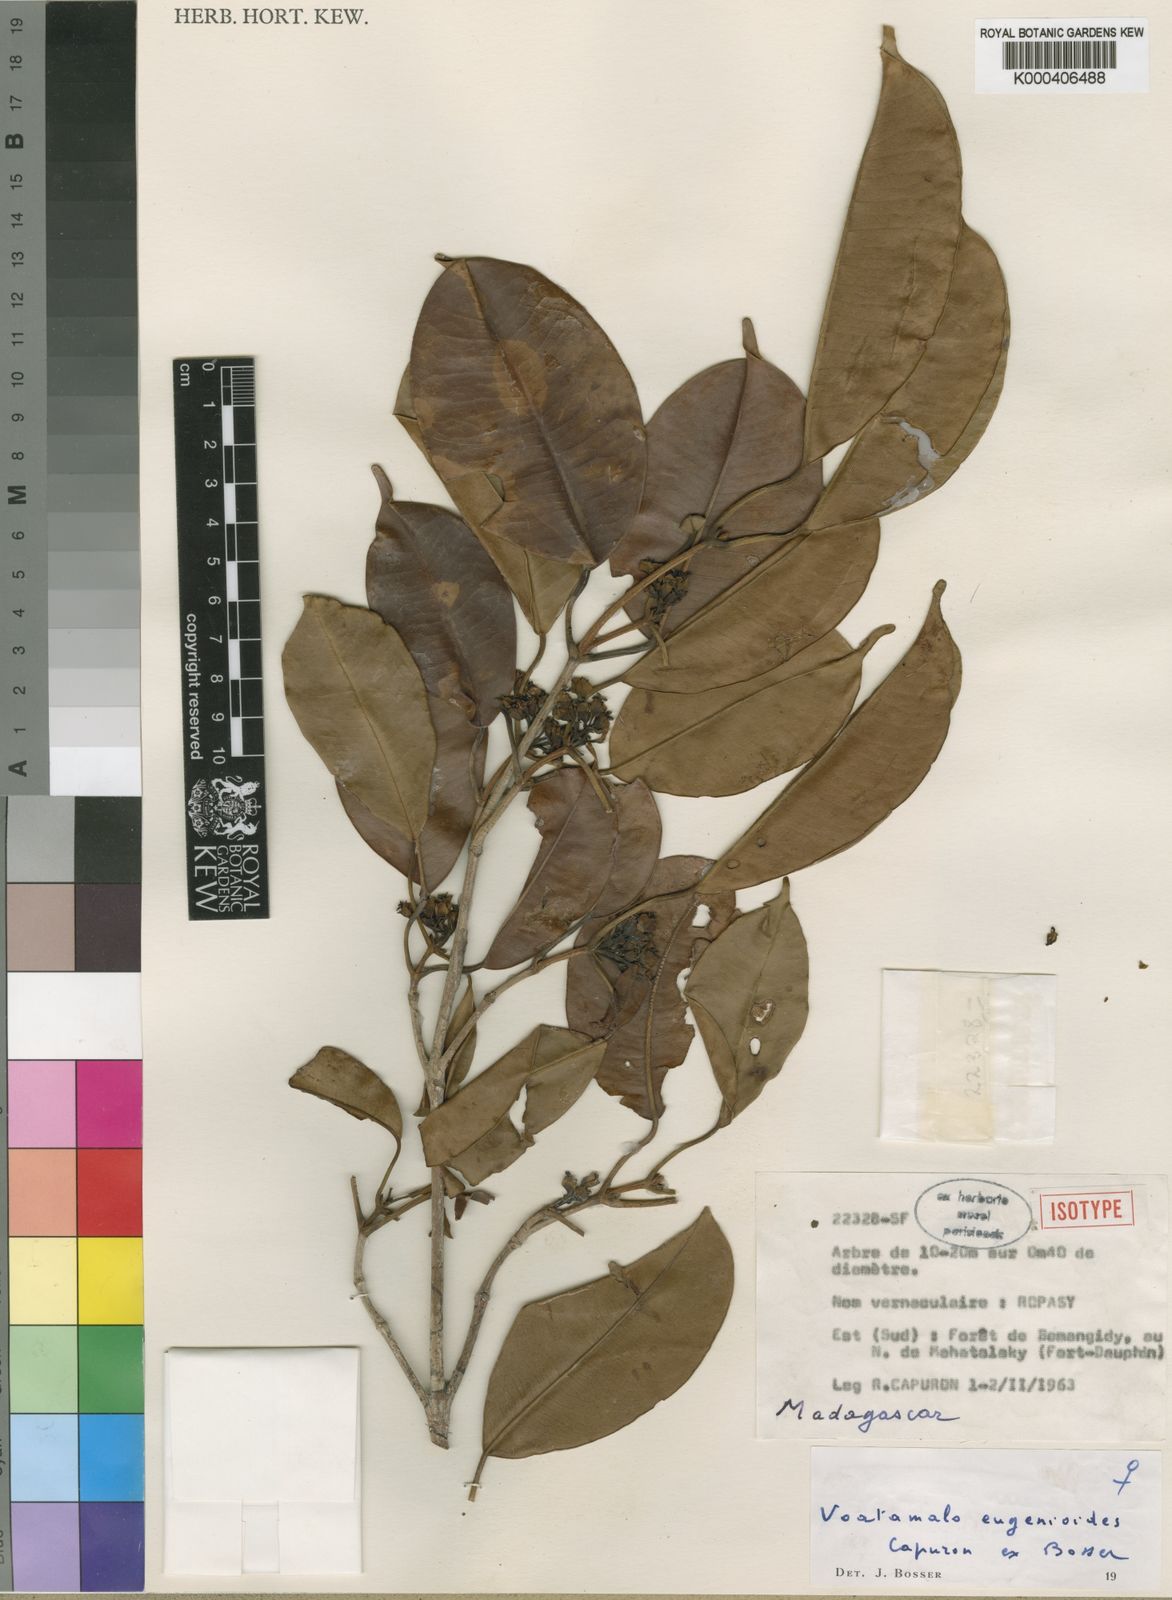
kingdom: Plantae
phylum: Tracheophyta
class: Magnoliopsida
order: Malpighiales
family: Picrodendraceae
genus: Voatamalo
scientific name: Voatamalo eugenioides
